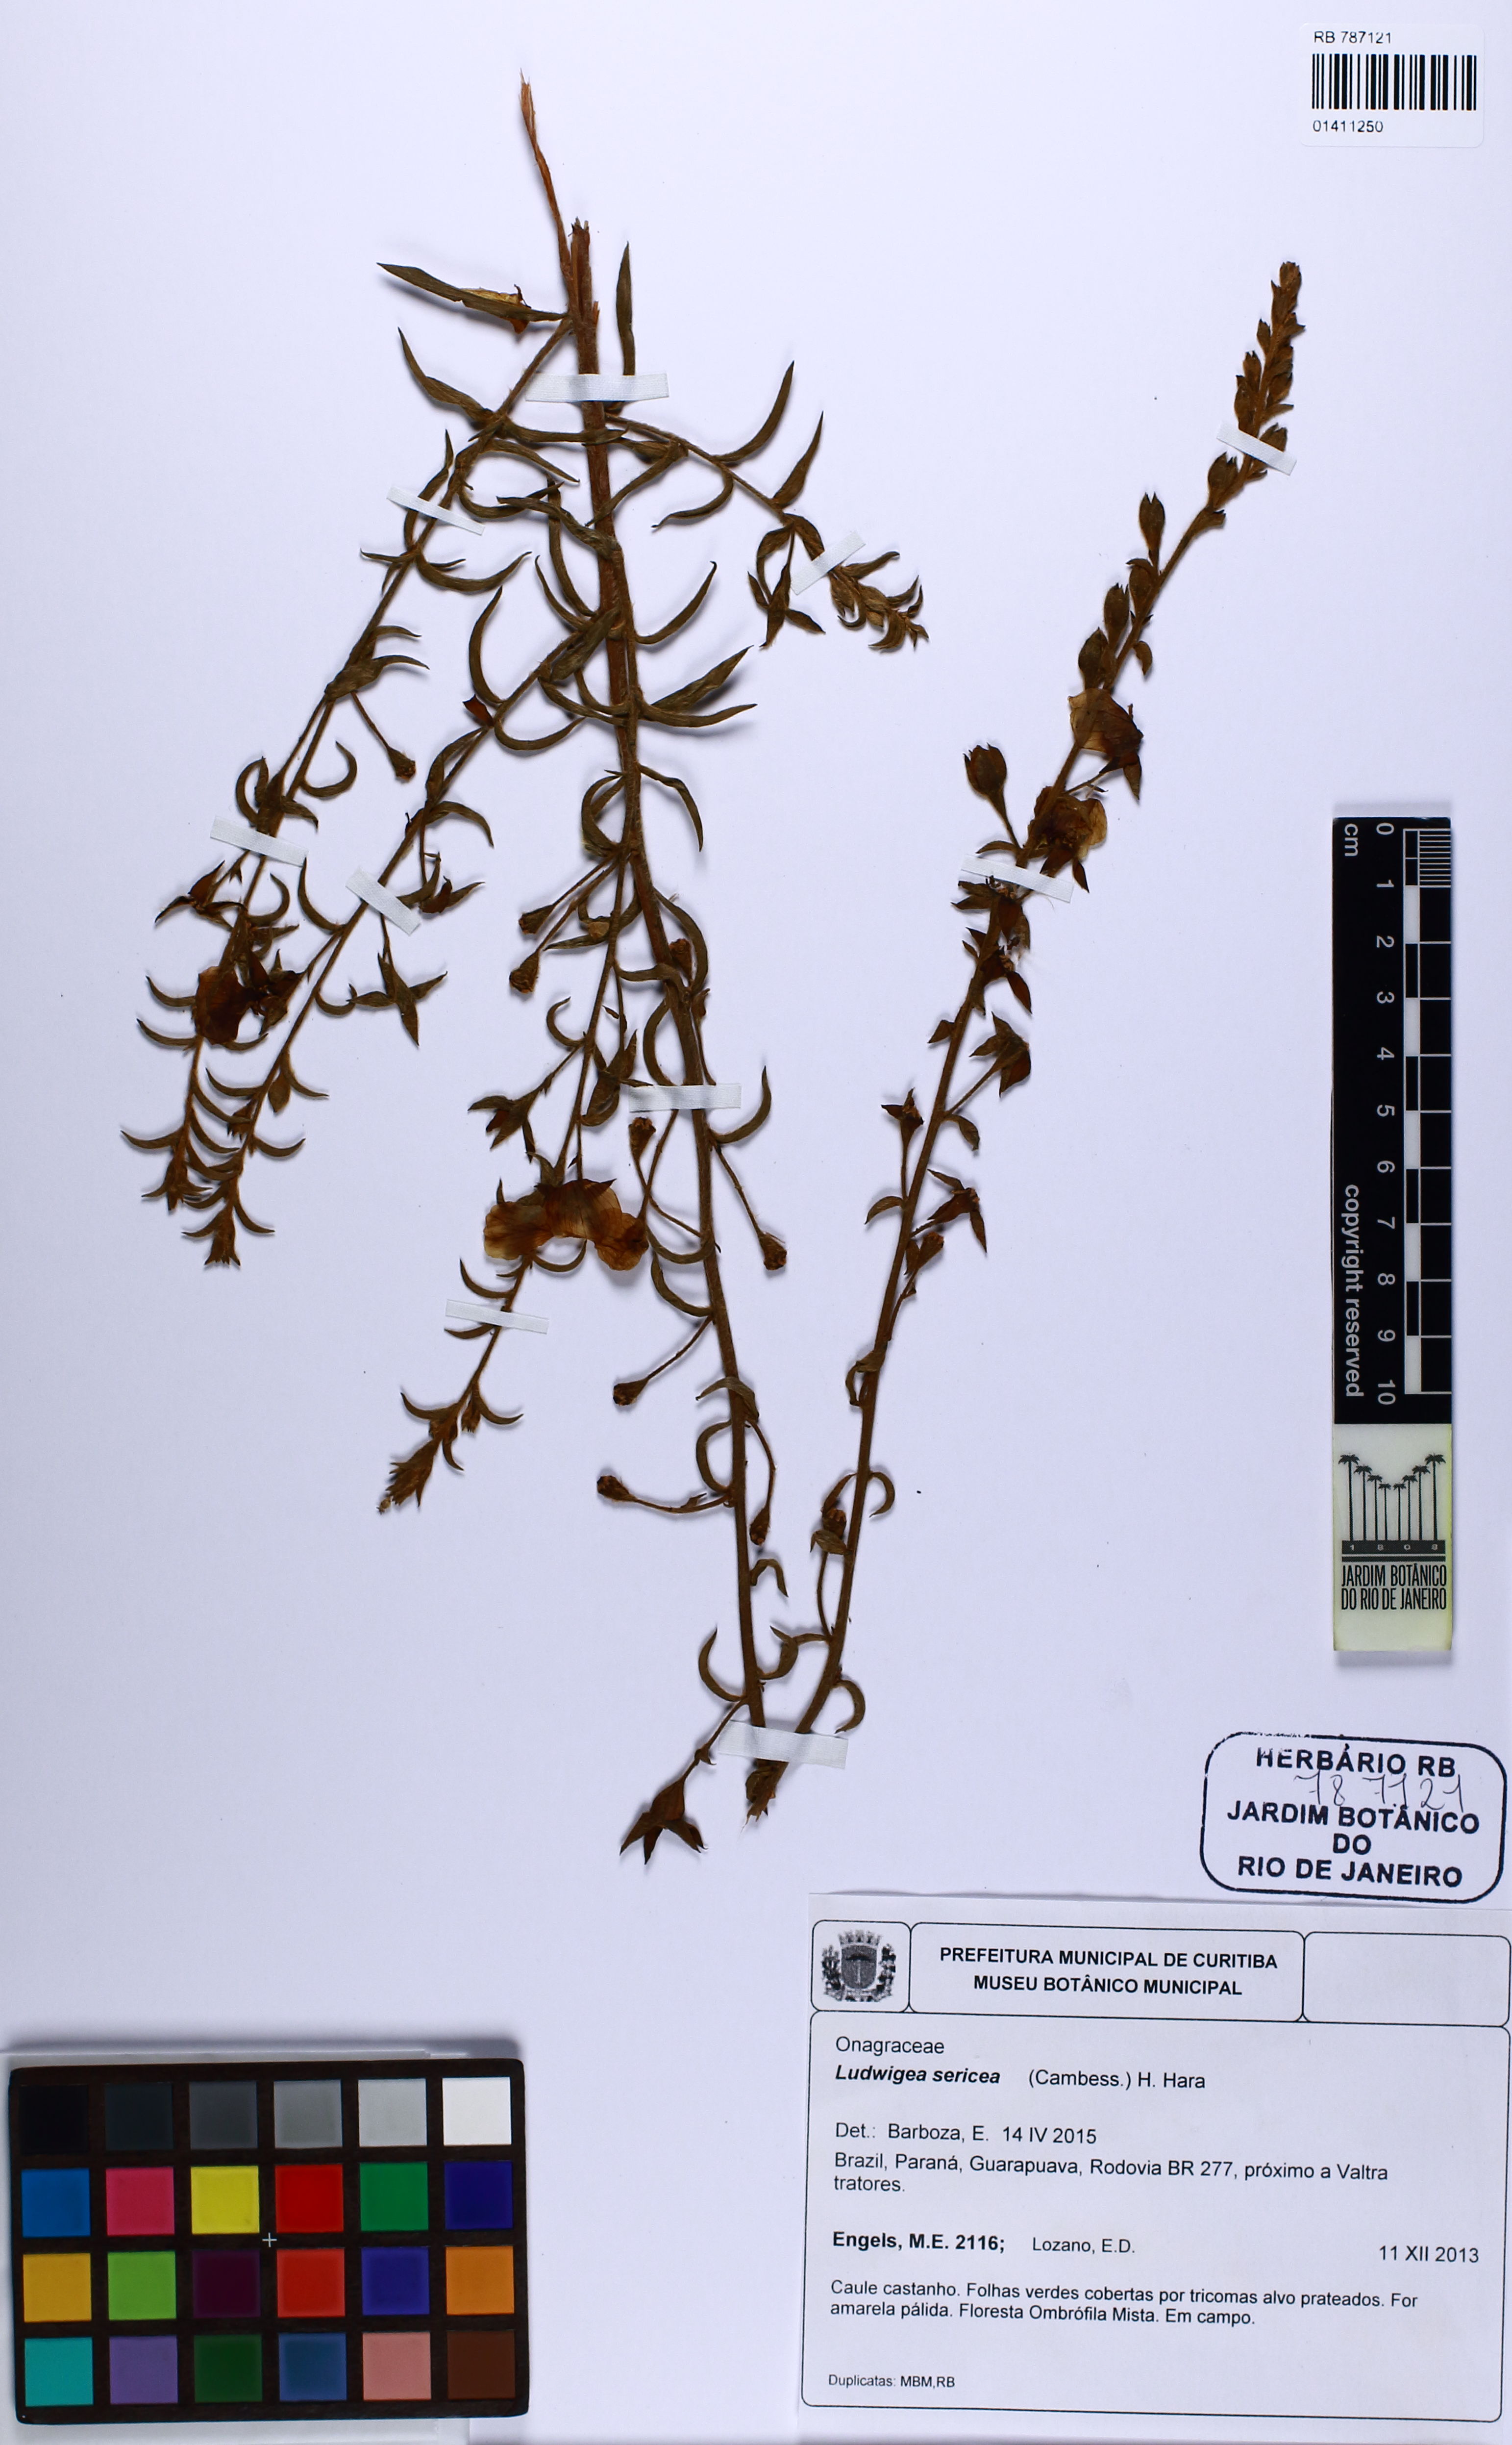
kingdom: Plantae
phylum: Tracheophyta
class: Magnoliopsida
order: Myrtales
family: Onagraceae
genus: Ludwigia
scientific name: Ludwigia sericea
